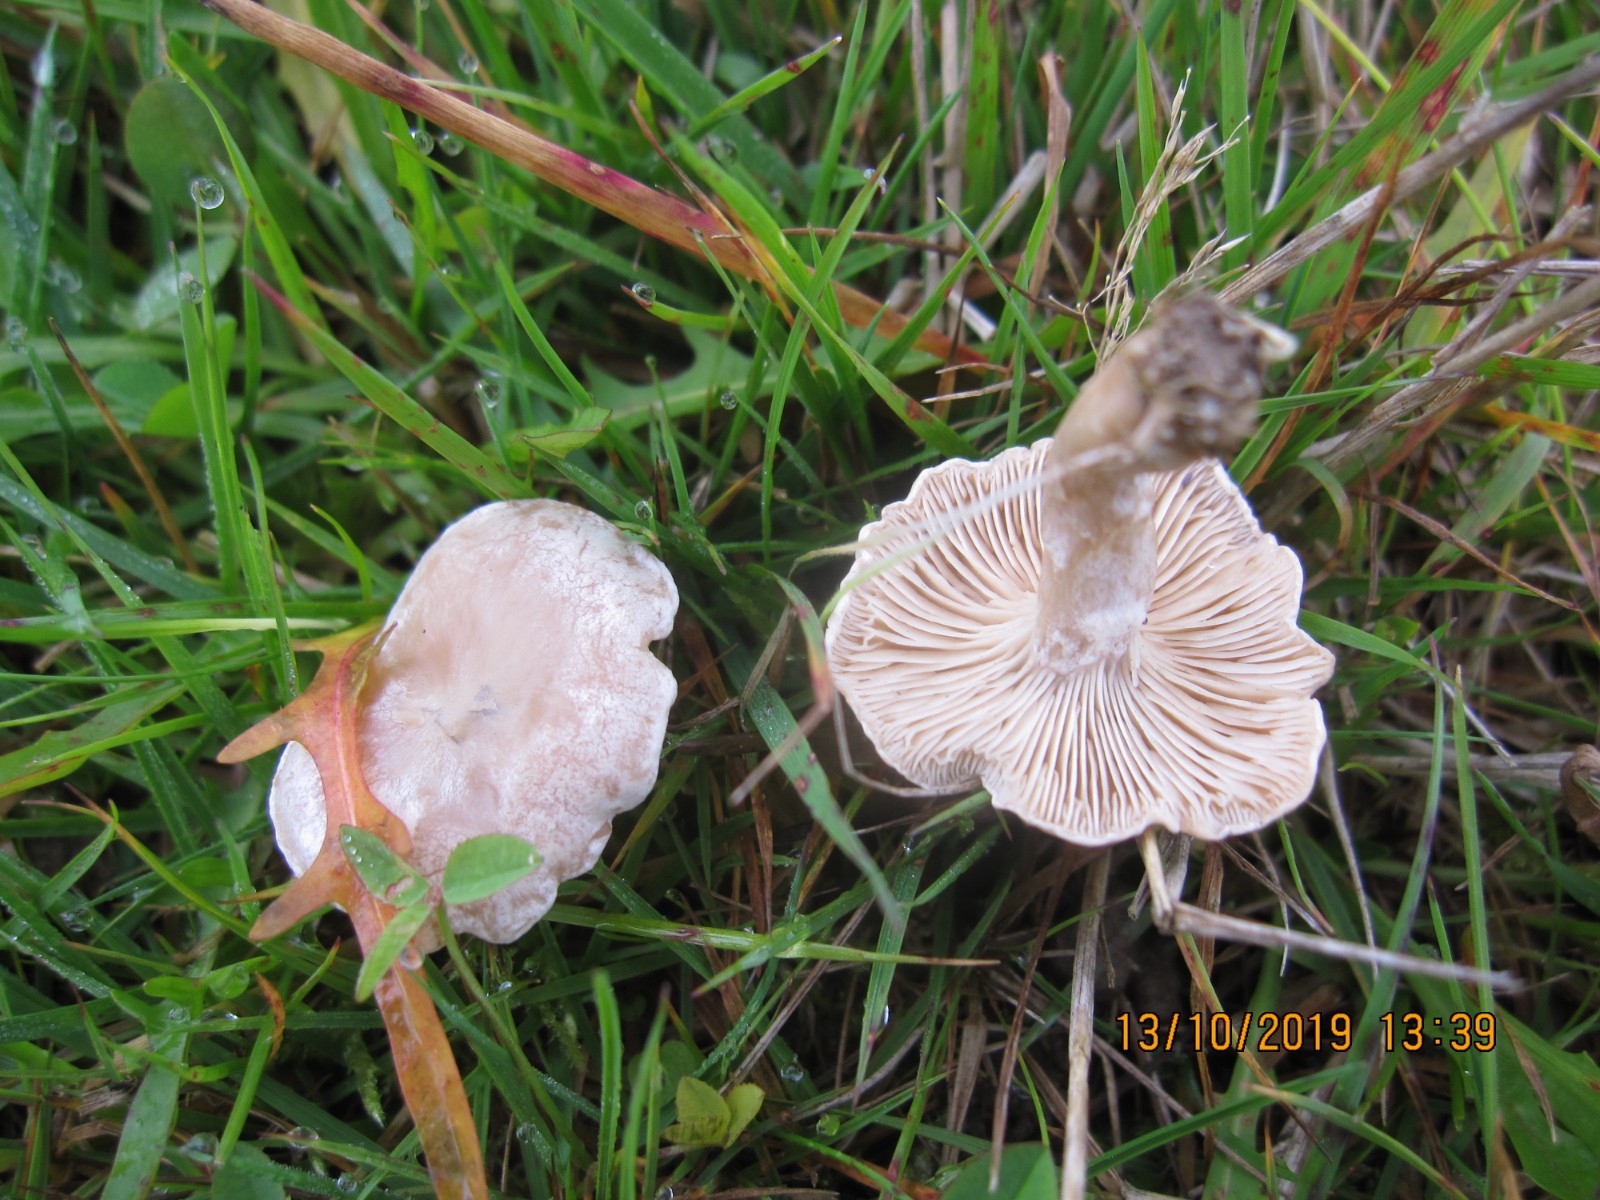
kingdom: Fungi
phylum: Basidiomycota
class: Agaricomycetes
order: Agaricales
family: Tricholomataceae
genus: Clitocybe
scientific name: Clitocybe rivulosa
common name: eng-tragthat
